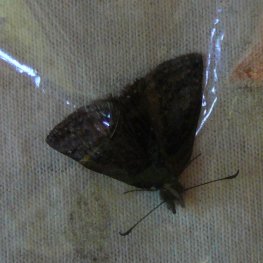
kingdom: Animalia
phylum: Arthropoda
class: Insecta
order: Lepidoptera
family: Hesperiidae
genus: Erynnis
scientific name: Erynnis icelus
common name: Dreamy Duskywing
